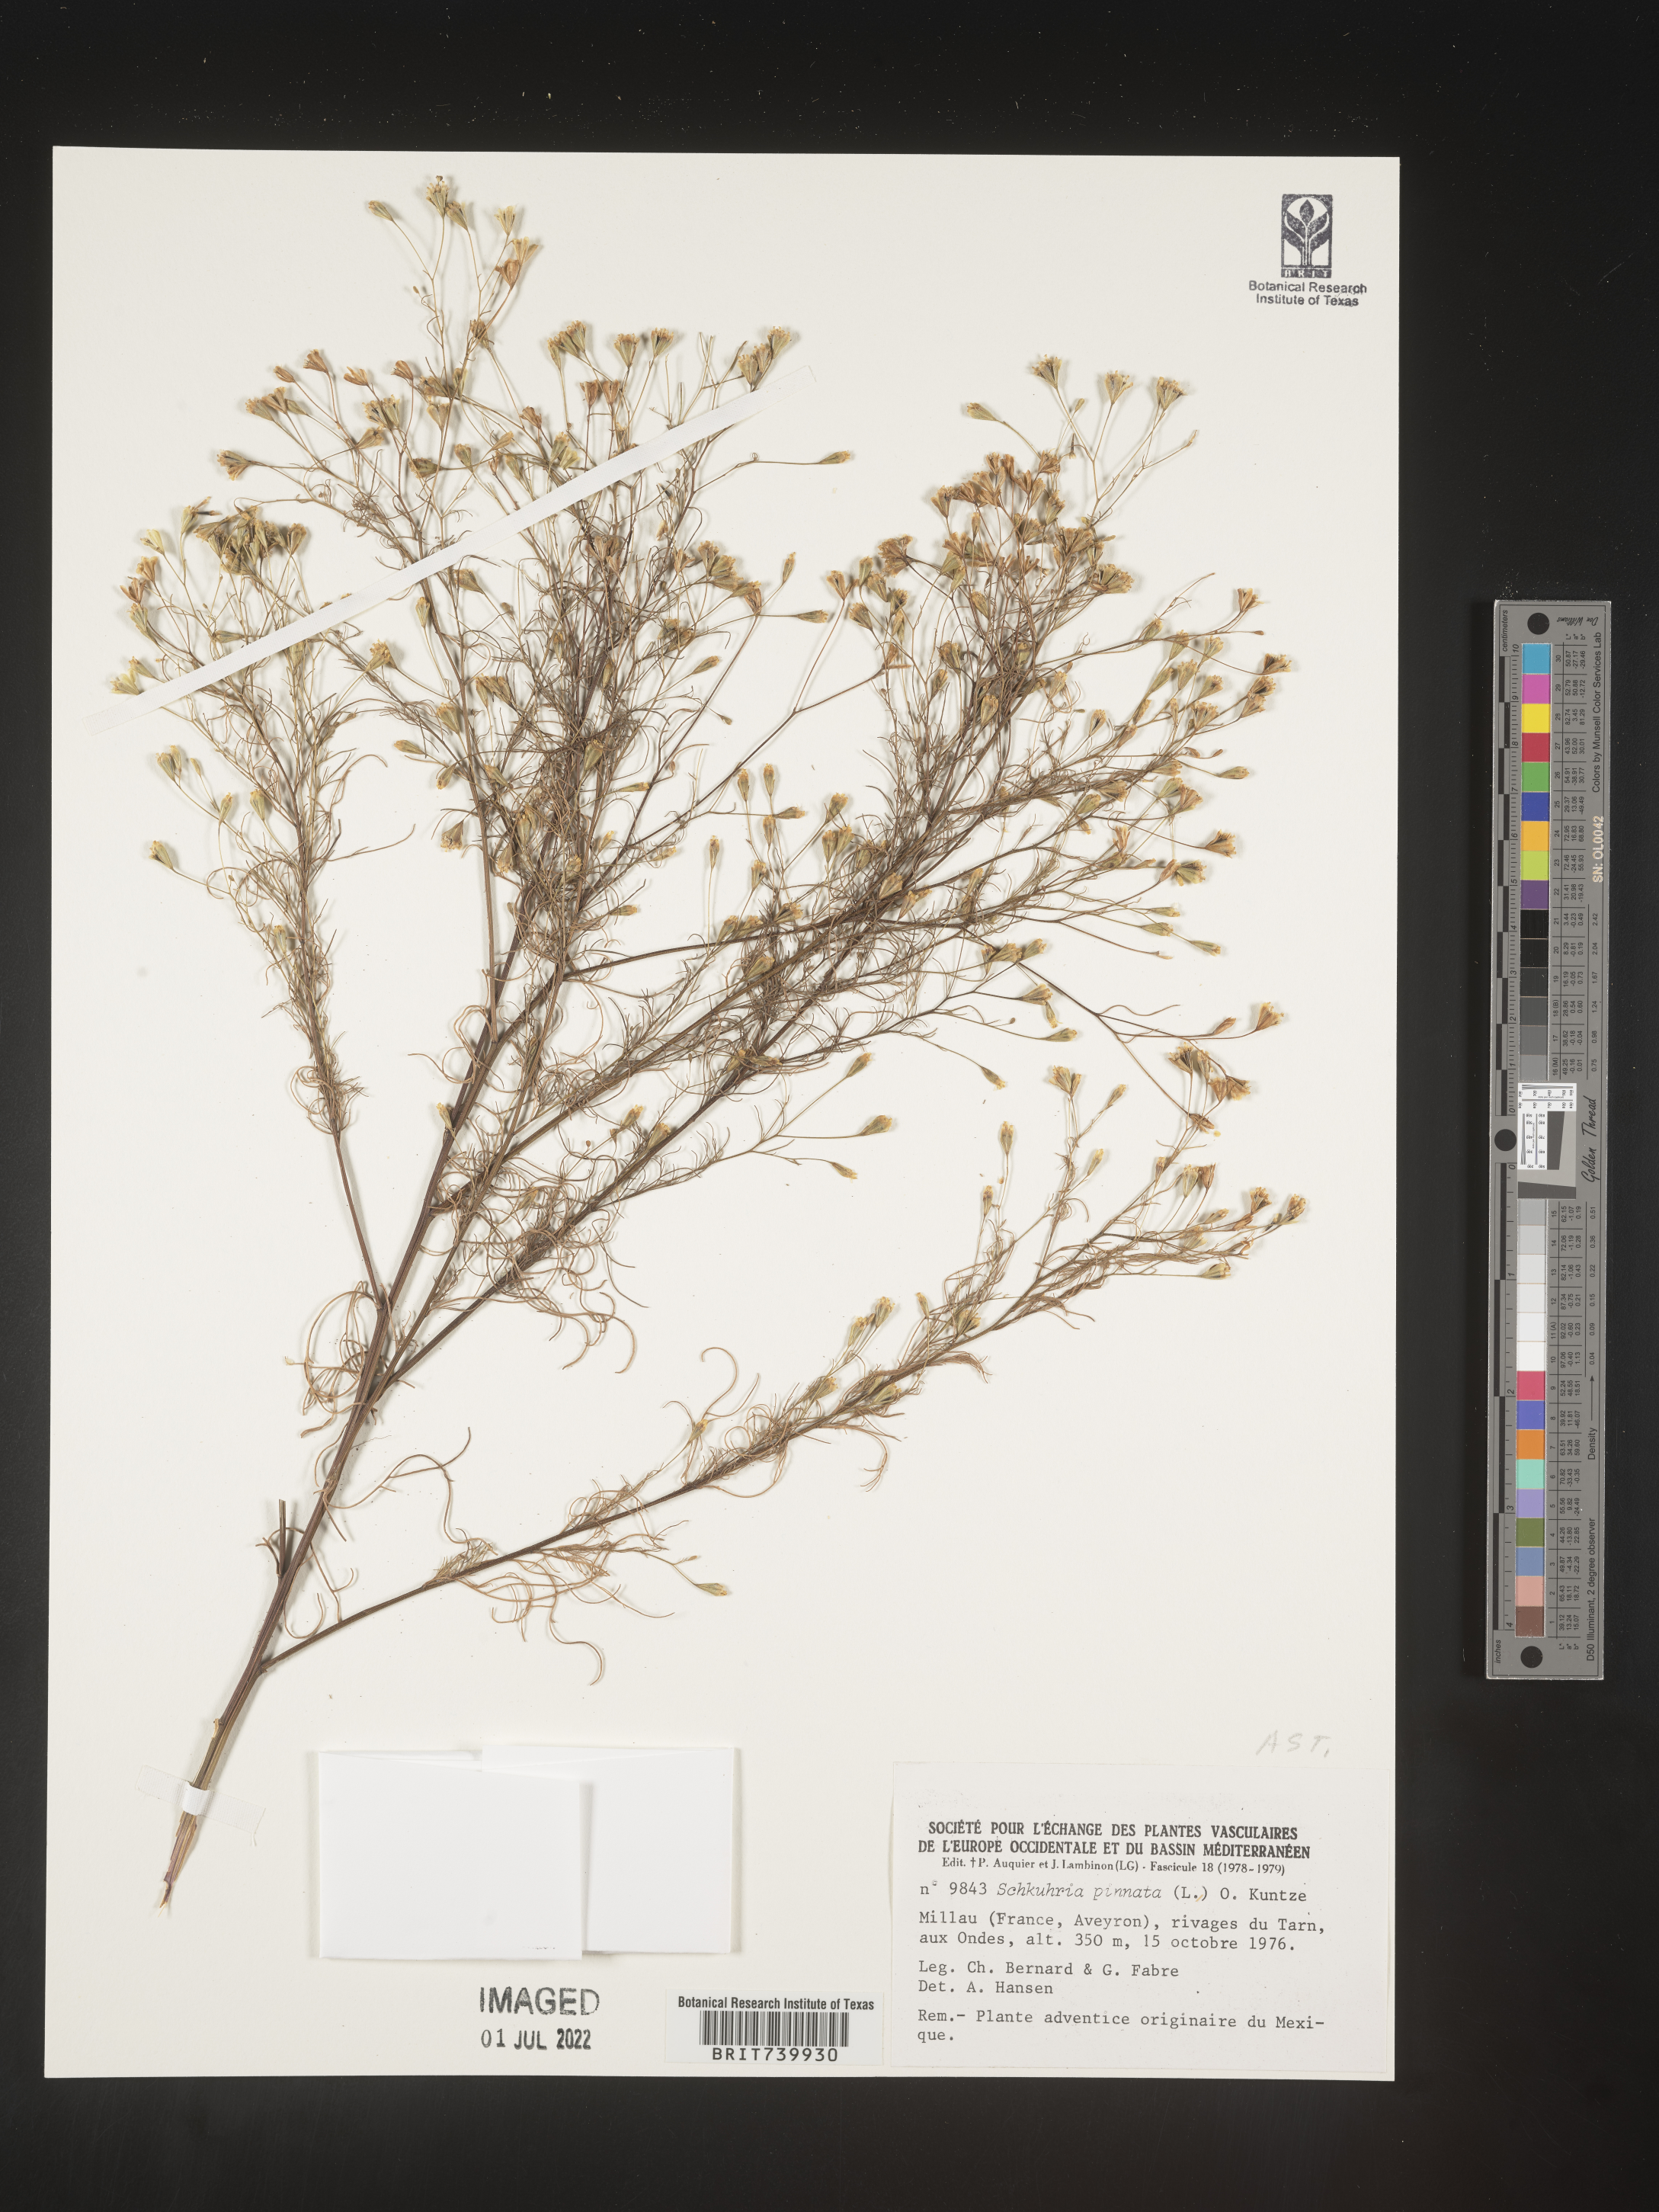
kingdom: Plantae
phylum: Tracheophyta
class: Magnoliopsida
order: Asterales
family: Asteraceae
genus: Schkuhria
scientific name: Schkuhria
